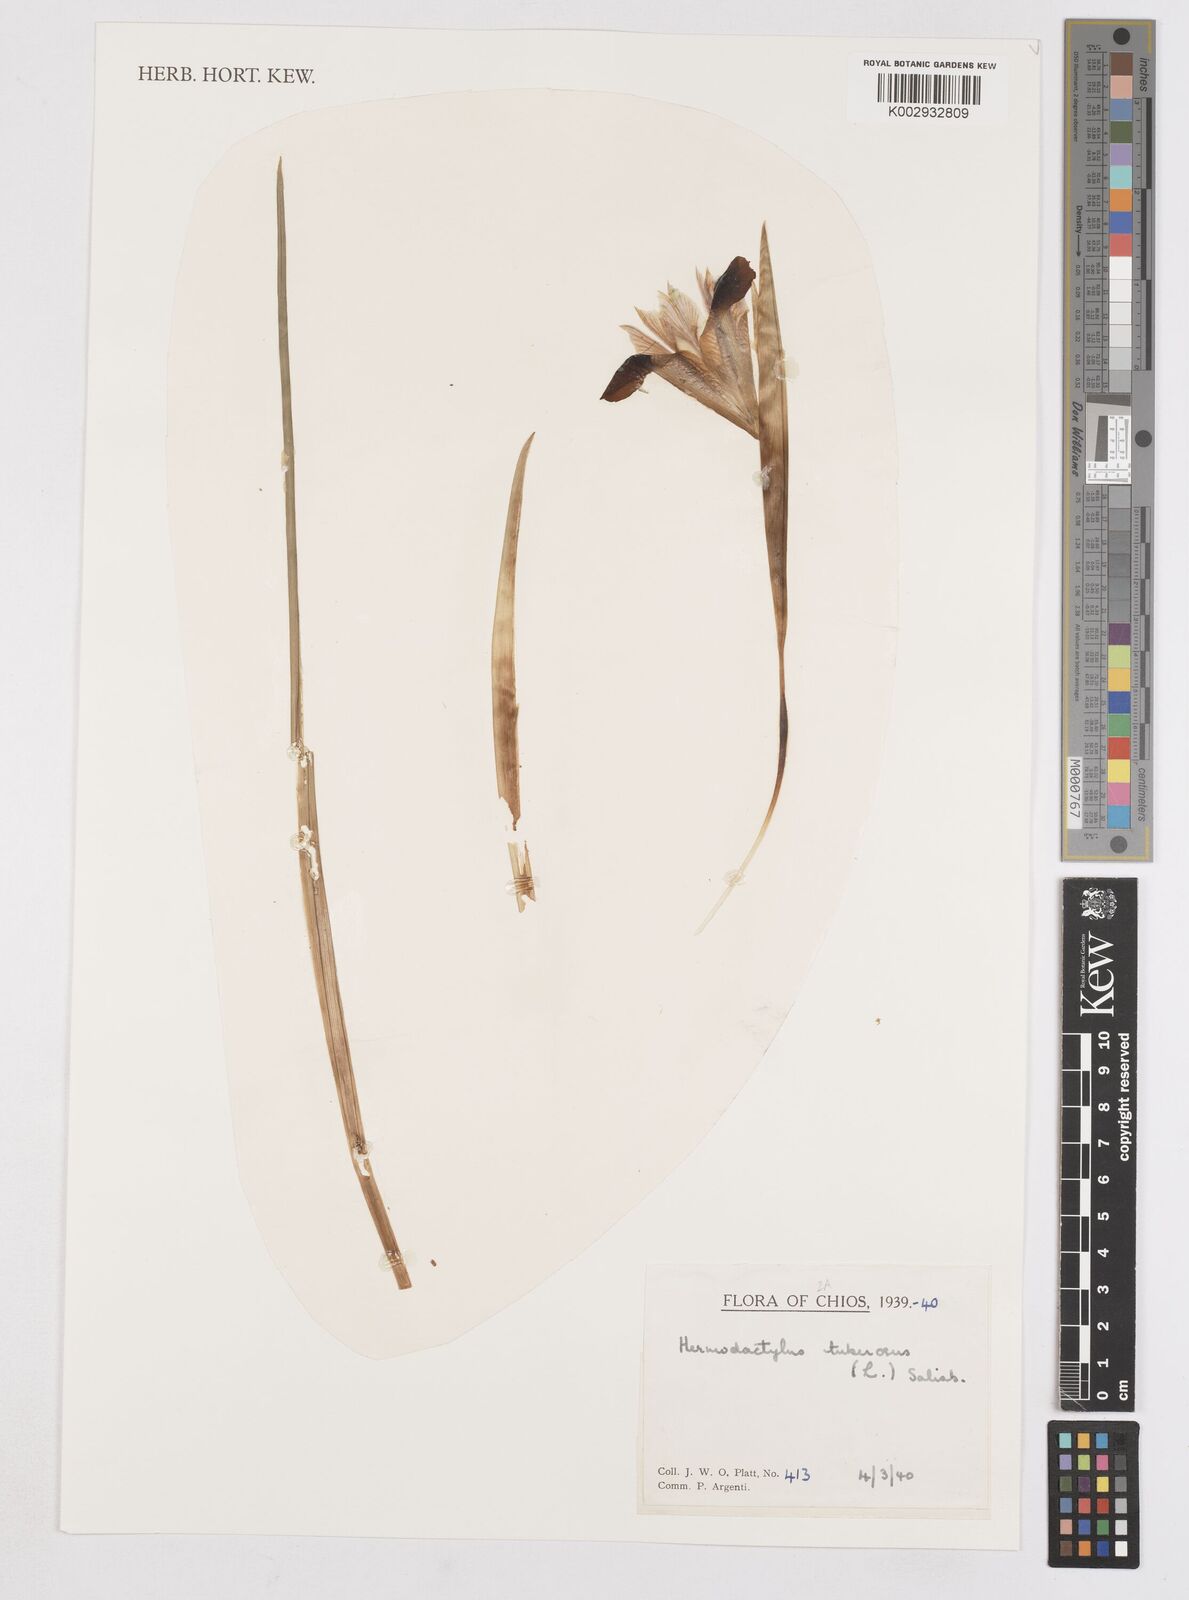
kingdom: Plantae
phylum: Tracheophyta
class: Liliopsida
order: Asparagales
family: Iridaceae
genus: Iris
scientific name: Iris
